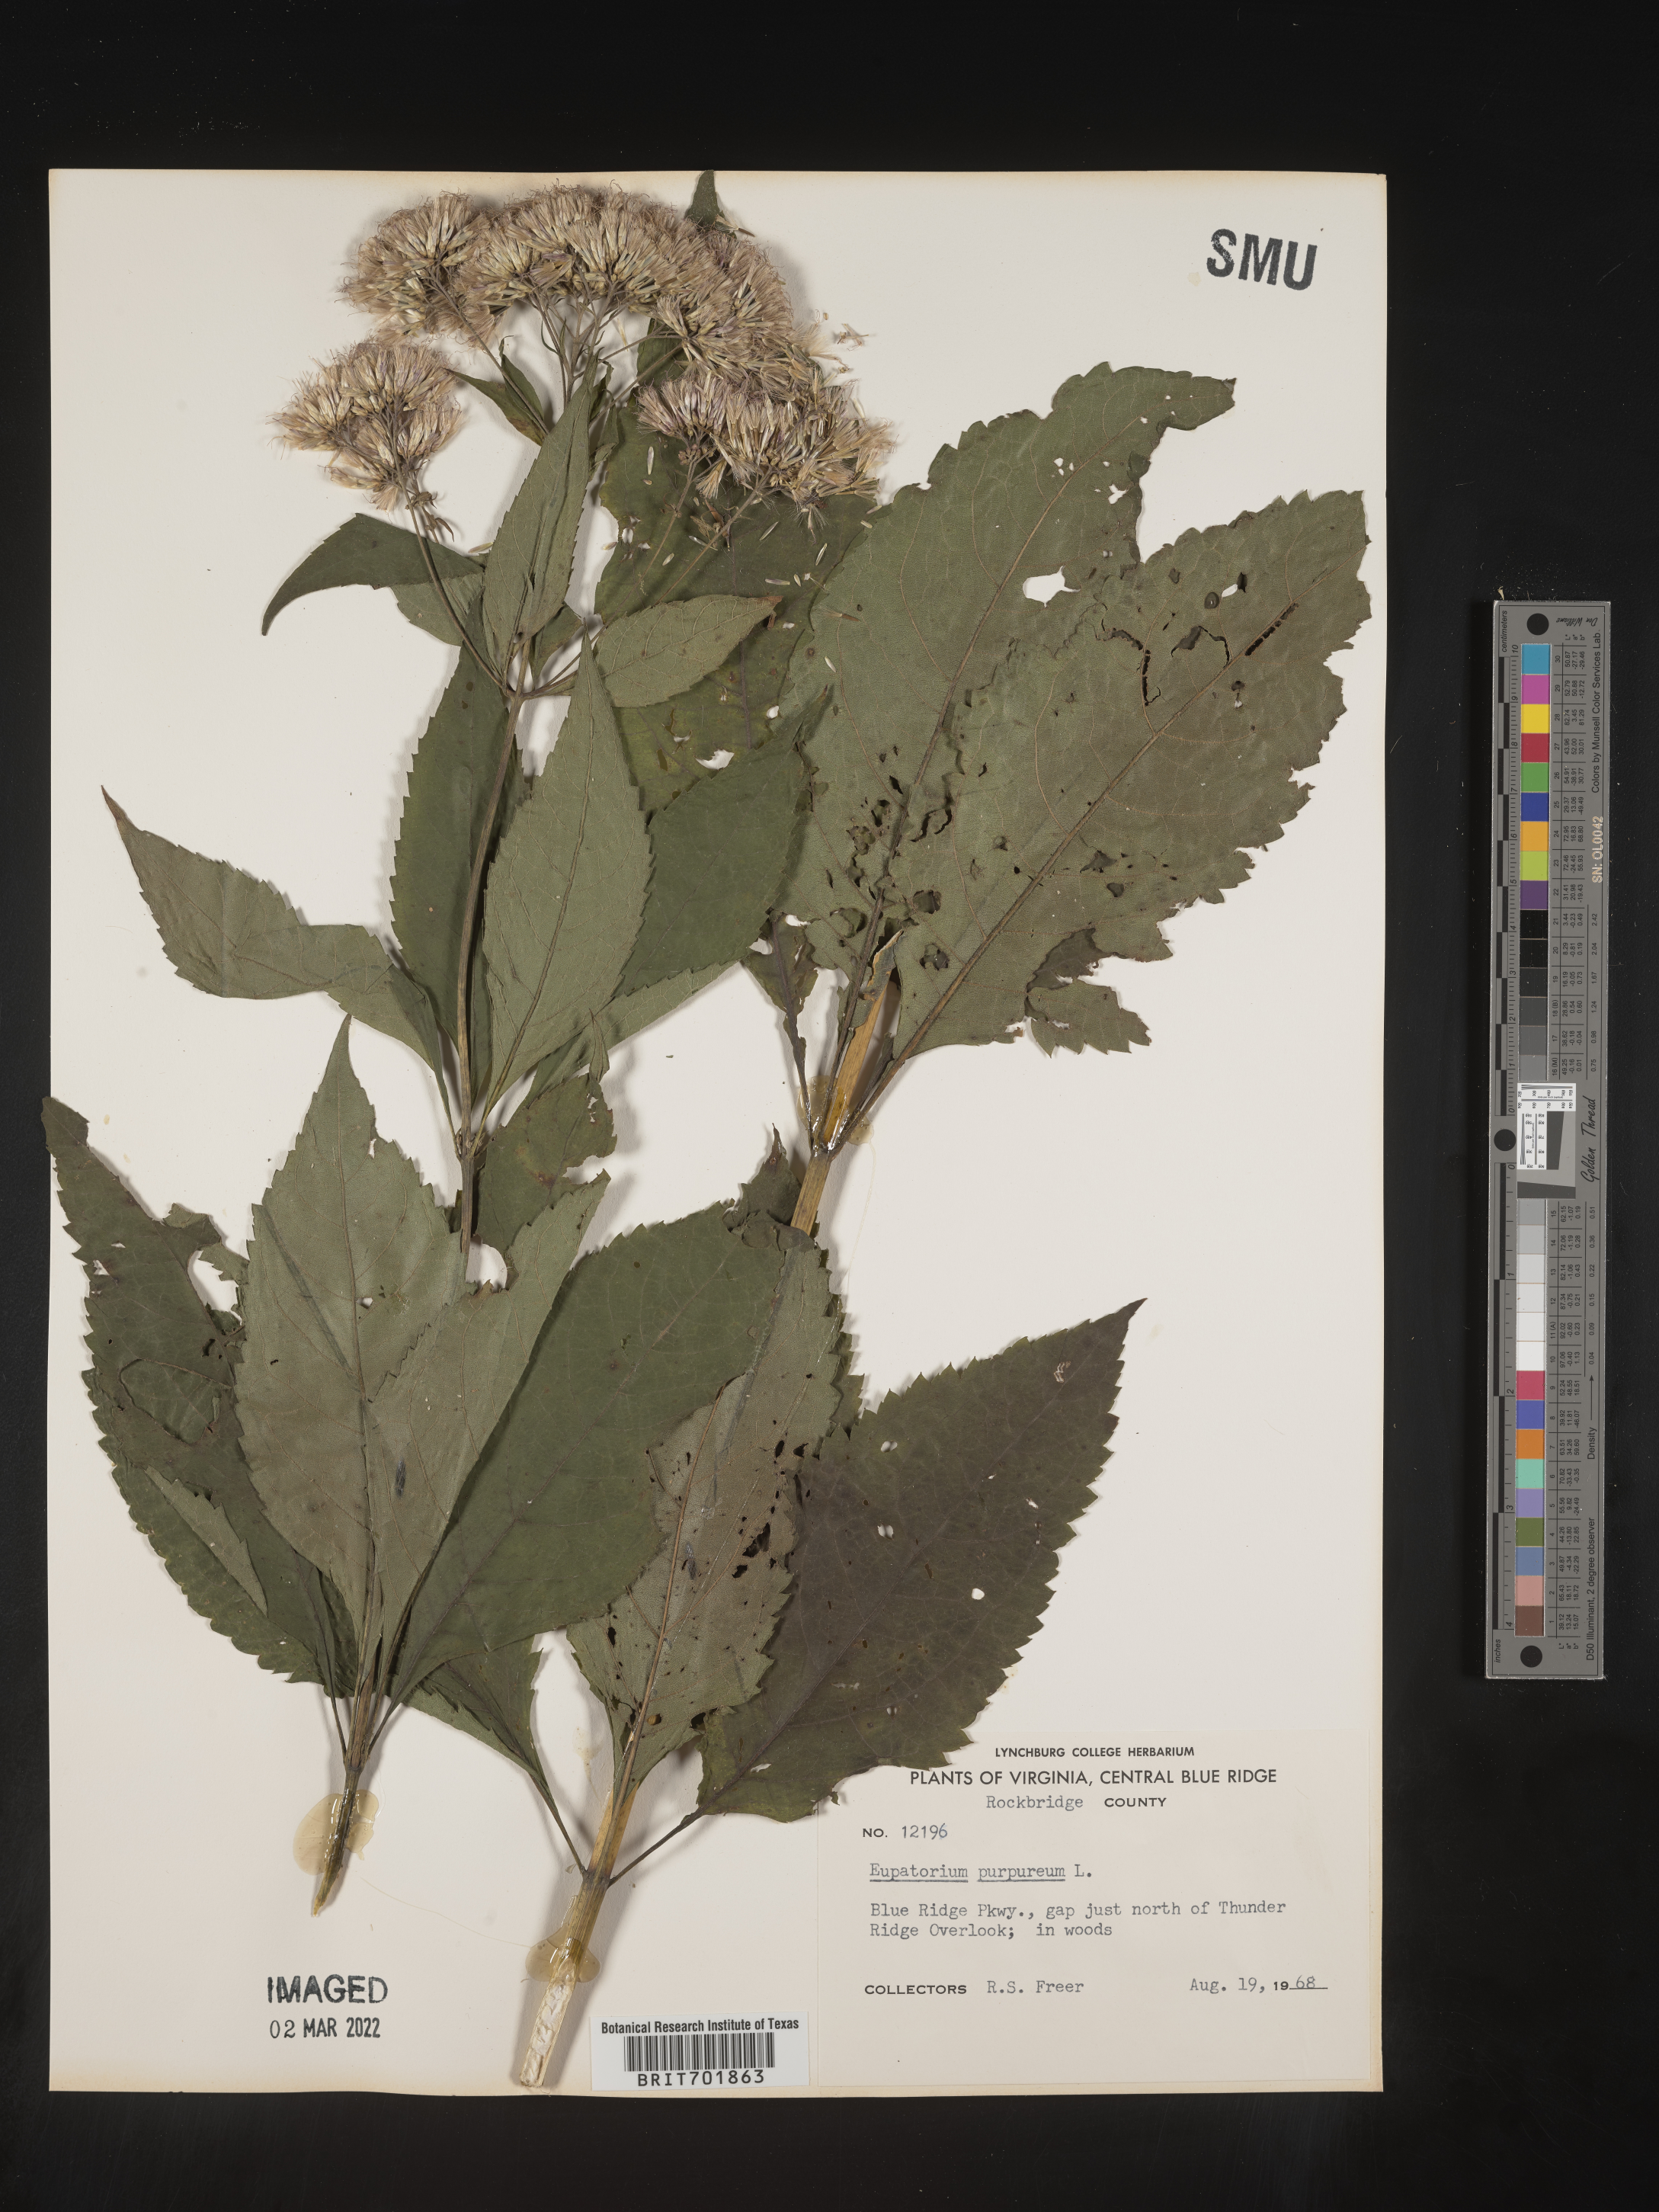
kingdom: Plantae
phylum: Tracheophyta
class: Magnoliopsida
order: Asterales
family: Asteraceae
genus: Eupatorium
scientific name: Eupatorium quaternum
